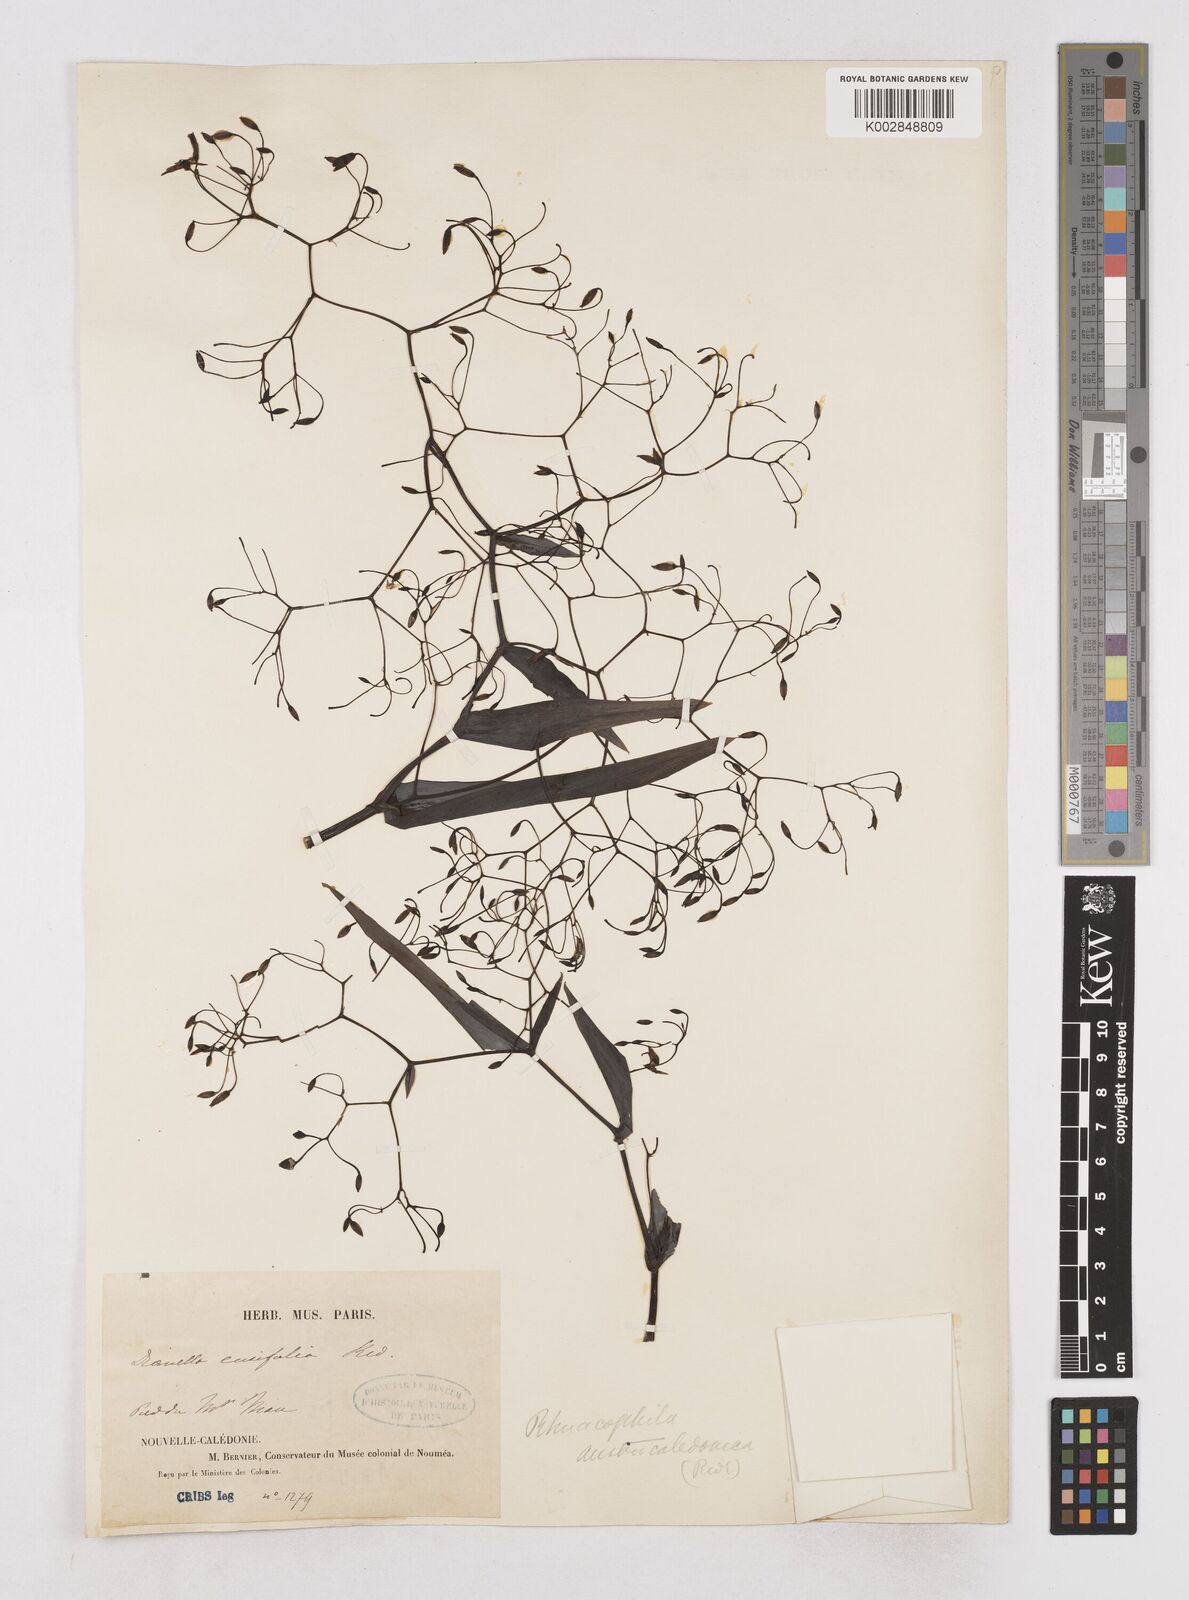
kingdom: Plantae
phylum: Tracheophyta
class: Liliopsida
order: Asparagales
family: Asphodelaceae
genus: Rhuacophila
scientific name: Rhuacophila javanica
